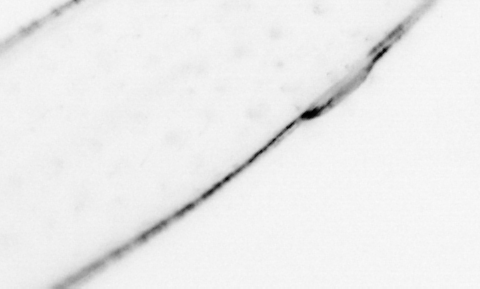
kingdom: Animalia
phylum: Chaetognatha
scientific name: Chaetognatha
